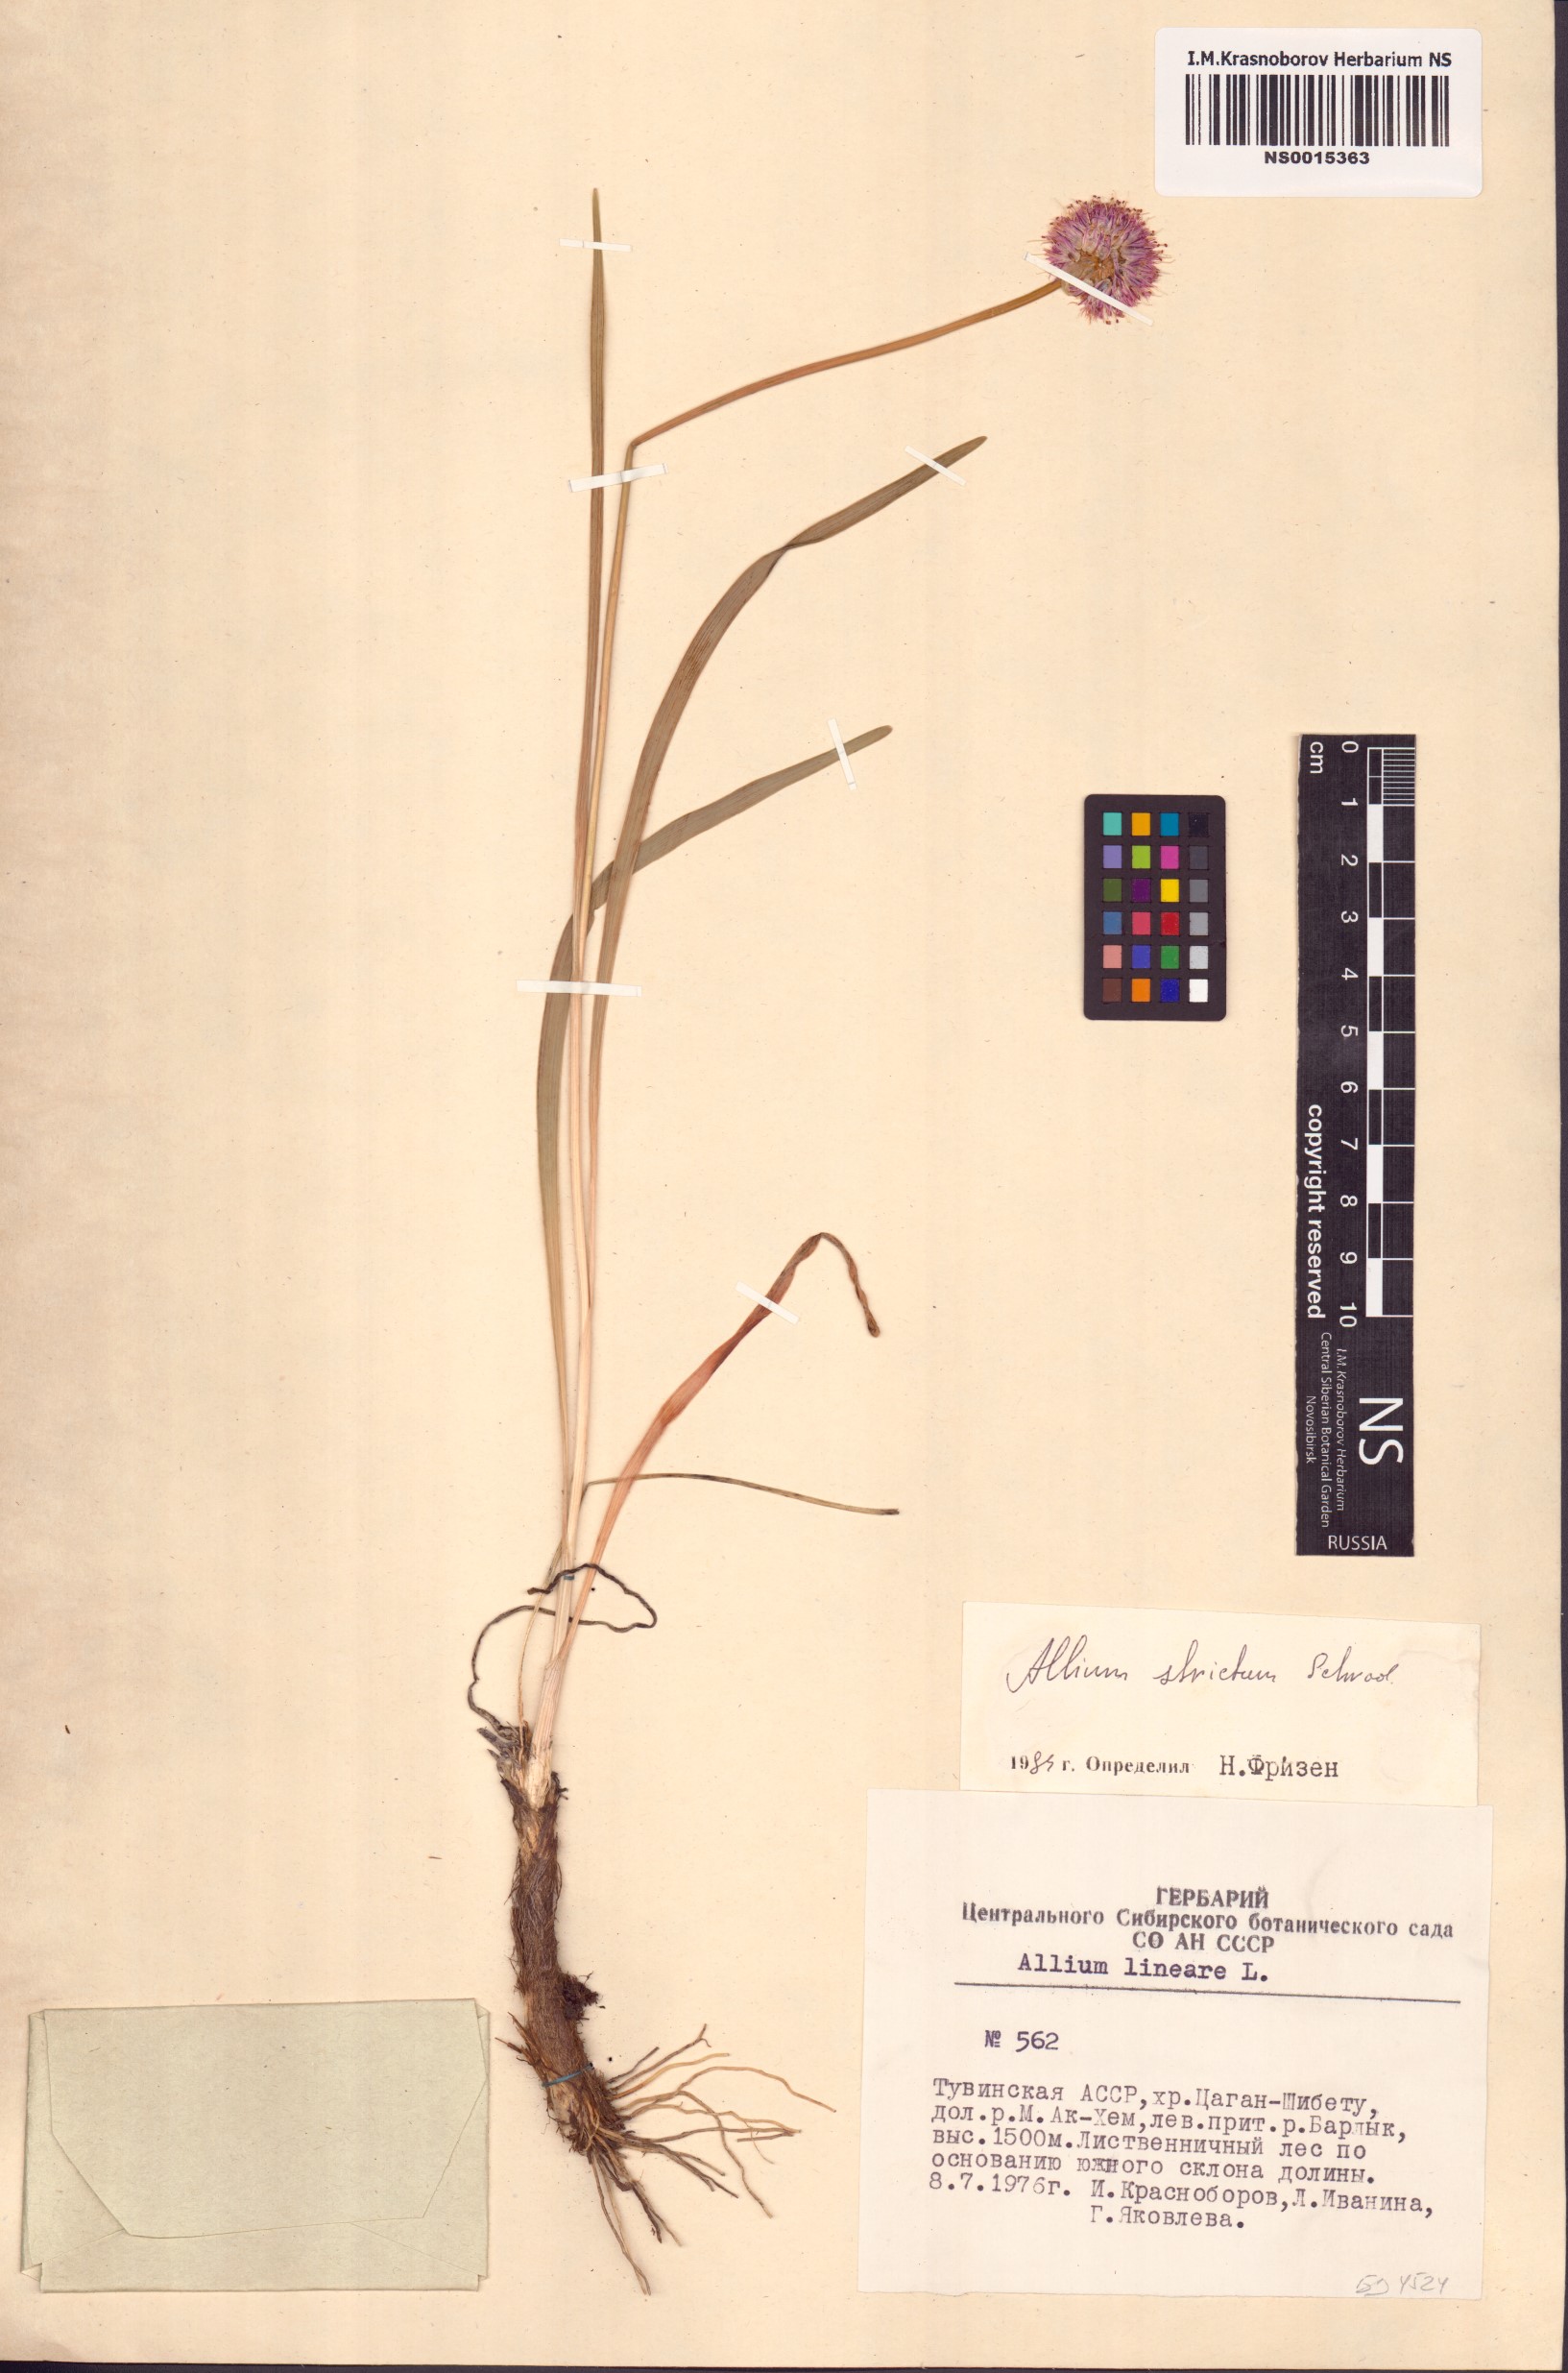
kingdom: Plantae
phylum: Tracheophyta
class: Liliopsida
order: Asparagales
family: Amaryllidaceae
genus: Allium
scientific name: Allium strictum
